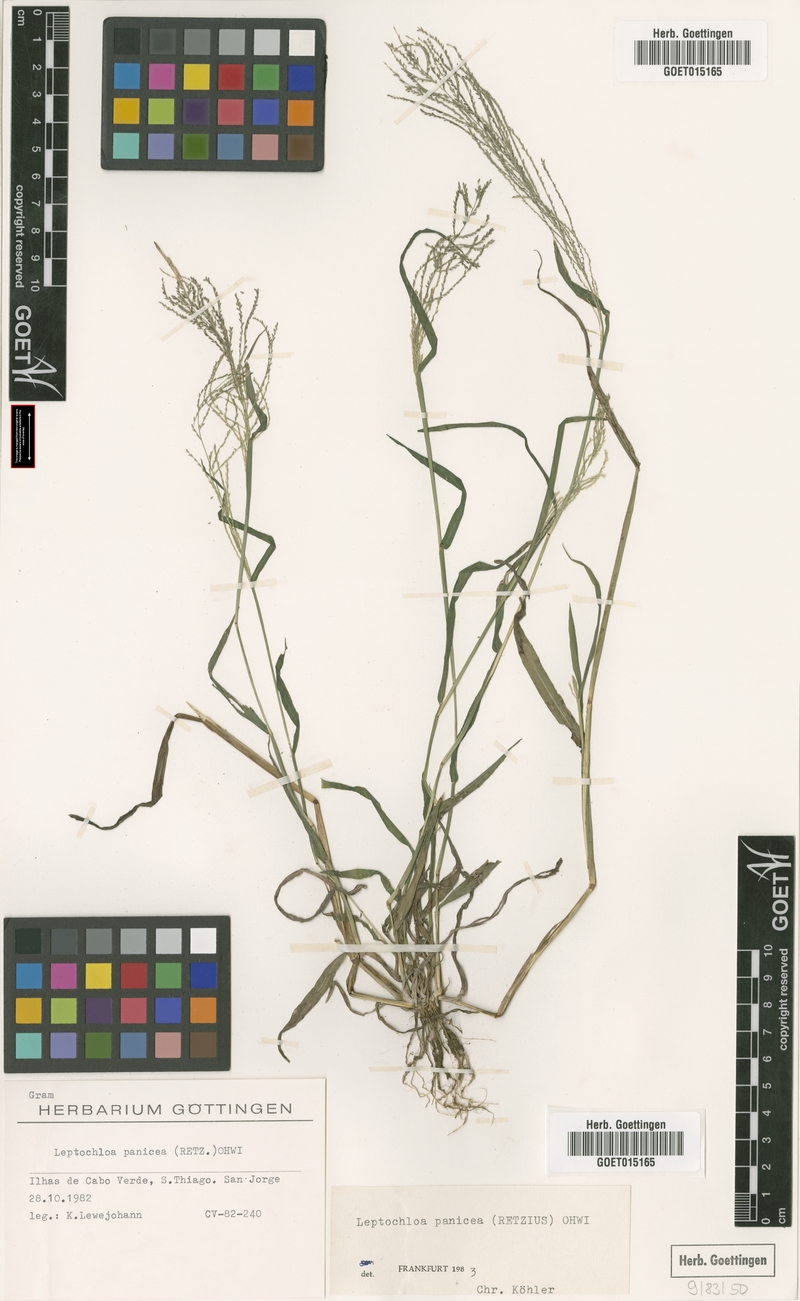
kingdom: Plantae
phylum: Tracheophyta
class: Liliopsida
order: Poales
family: Poaceae
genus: Leptochloa
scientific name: Leptochloa panicea
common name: Mucronate sprangletop
